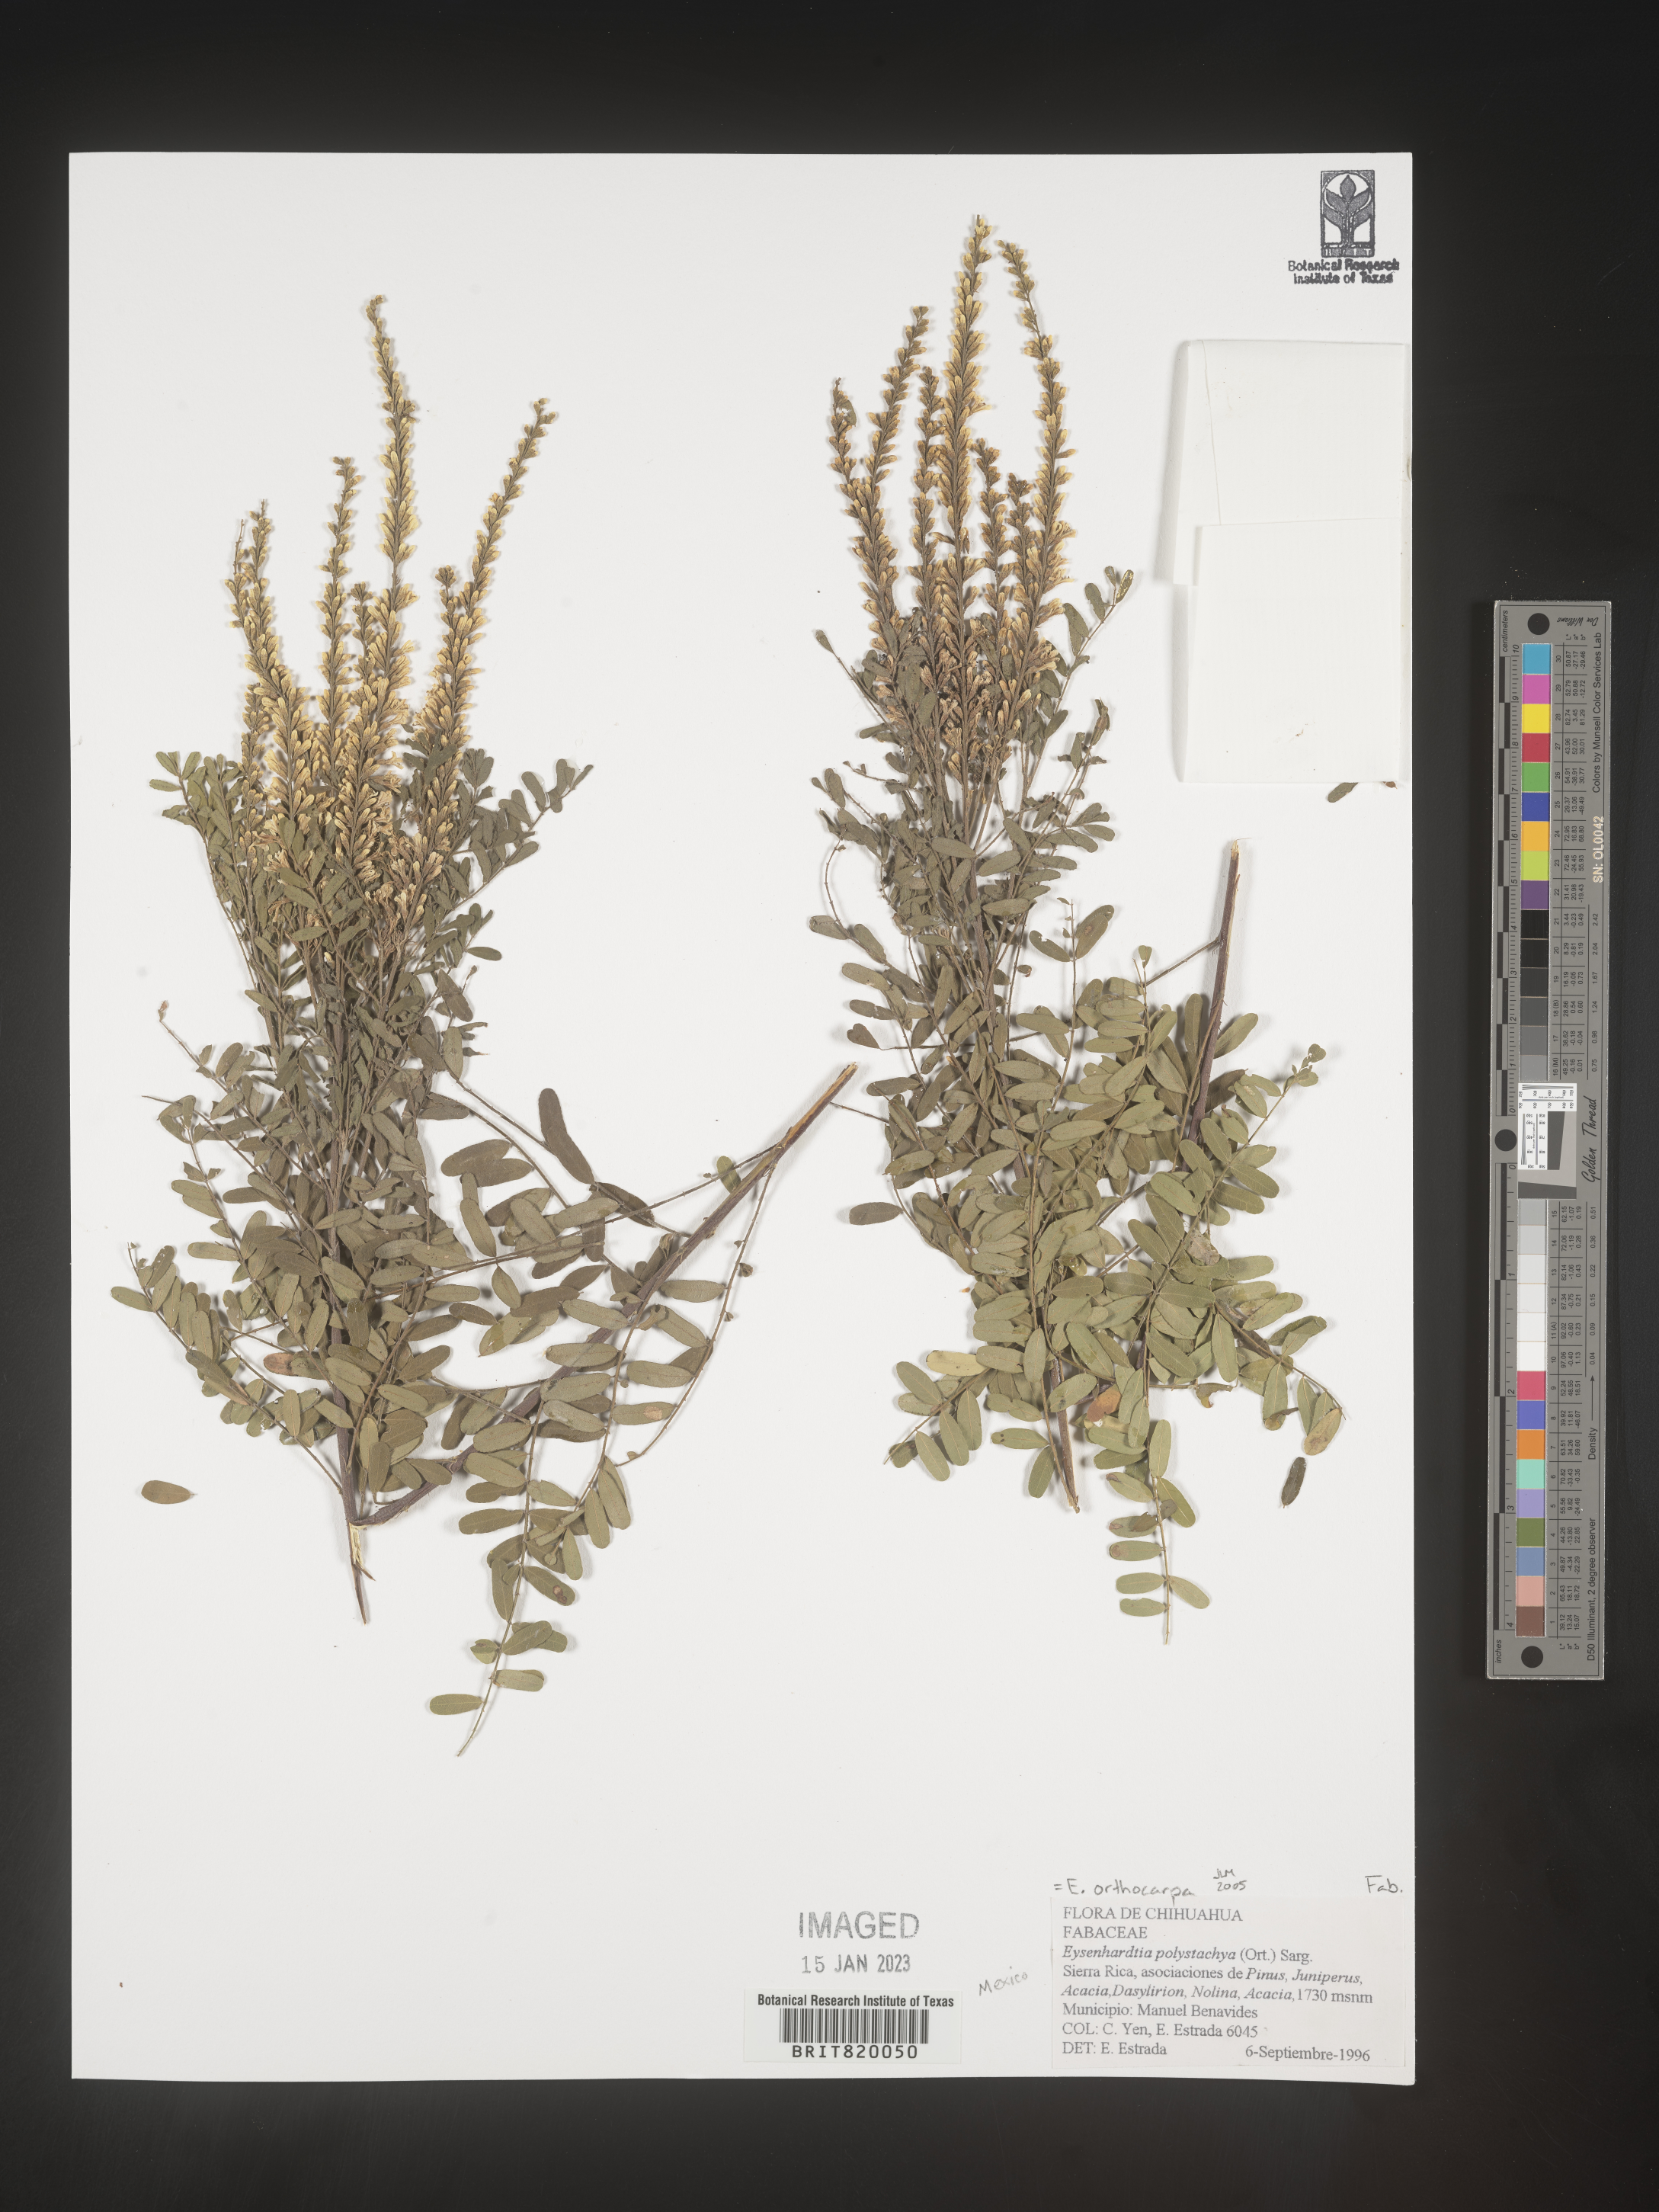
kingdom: Plantae
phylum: Tracheophyta
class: Magnoliopsida
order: Fabales
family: Fabaceae
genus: Eysenhardtia
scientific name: Eysenhardtia
